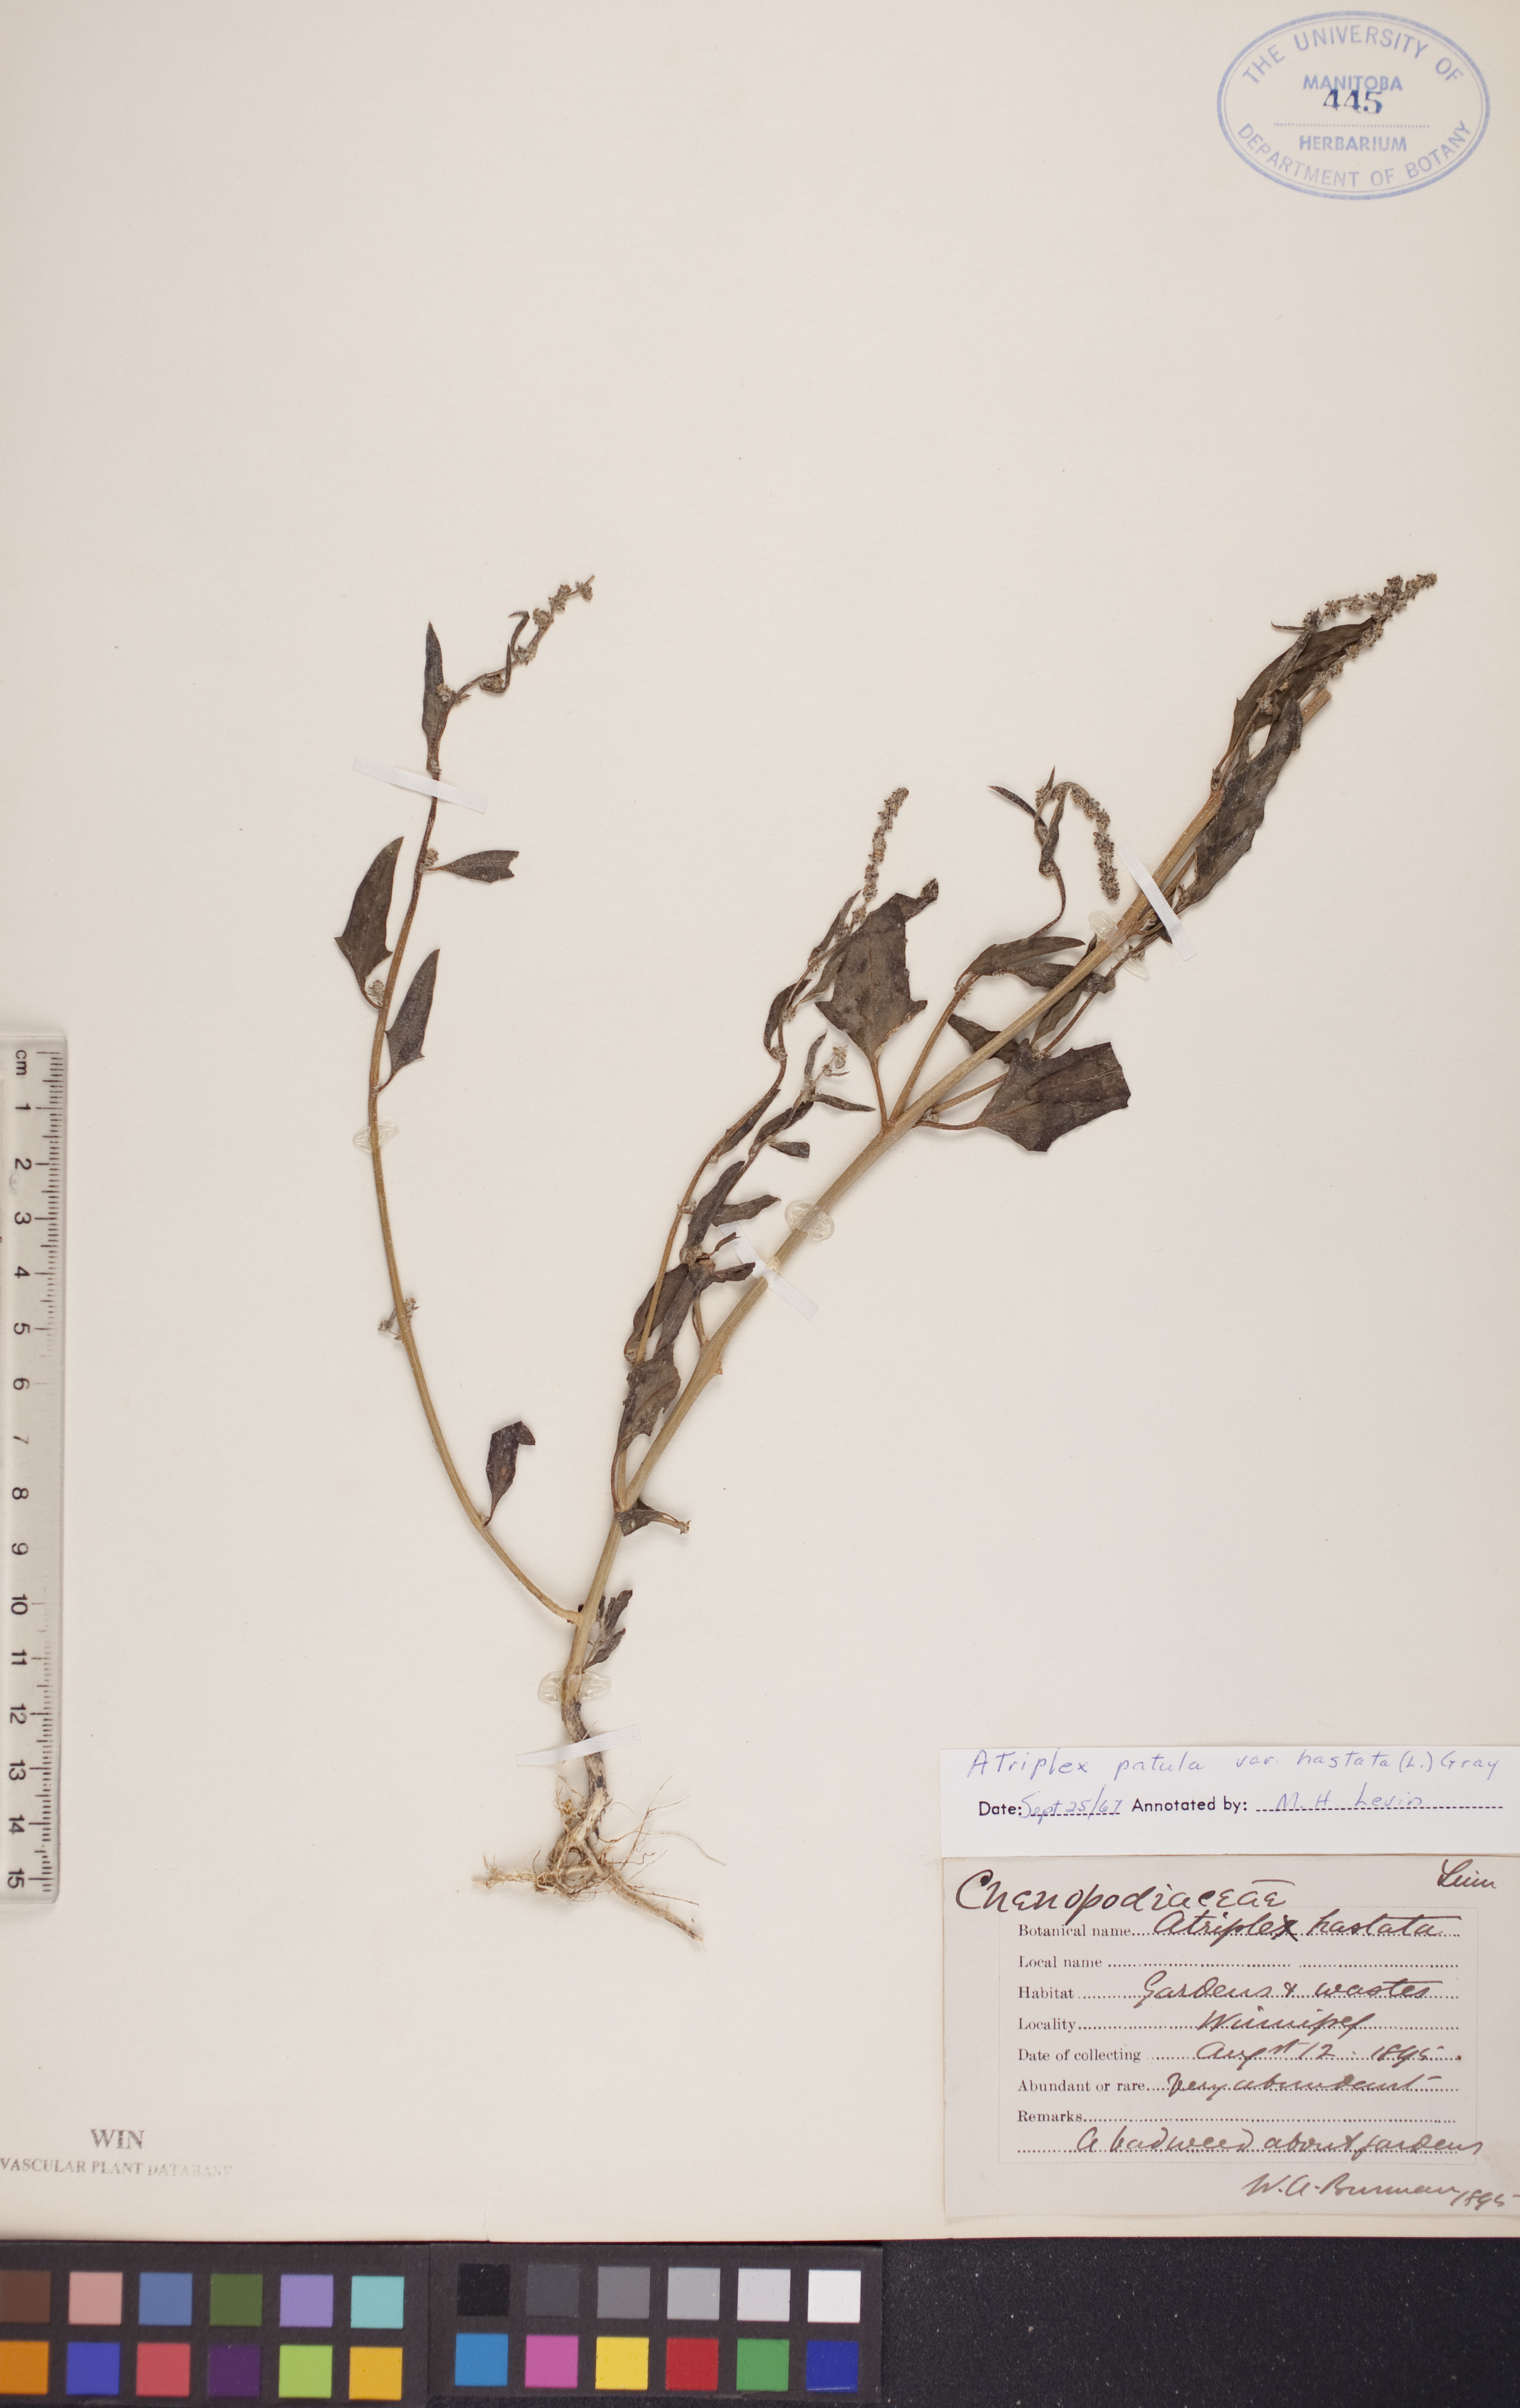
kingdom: Plantae
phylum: Tracheophyta
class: Magnoliopsida
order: Caryophyllales
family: Amaranthaceae
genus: Atriplex
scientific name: Atriplex
